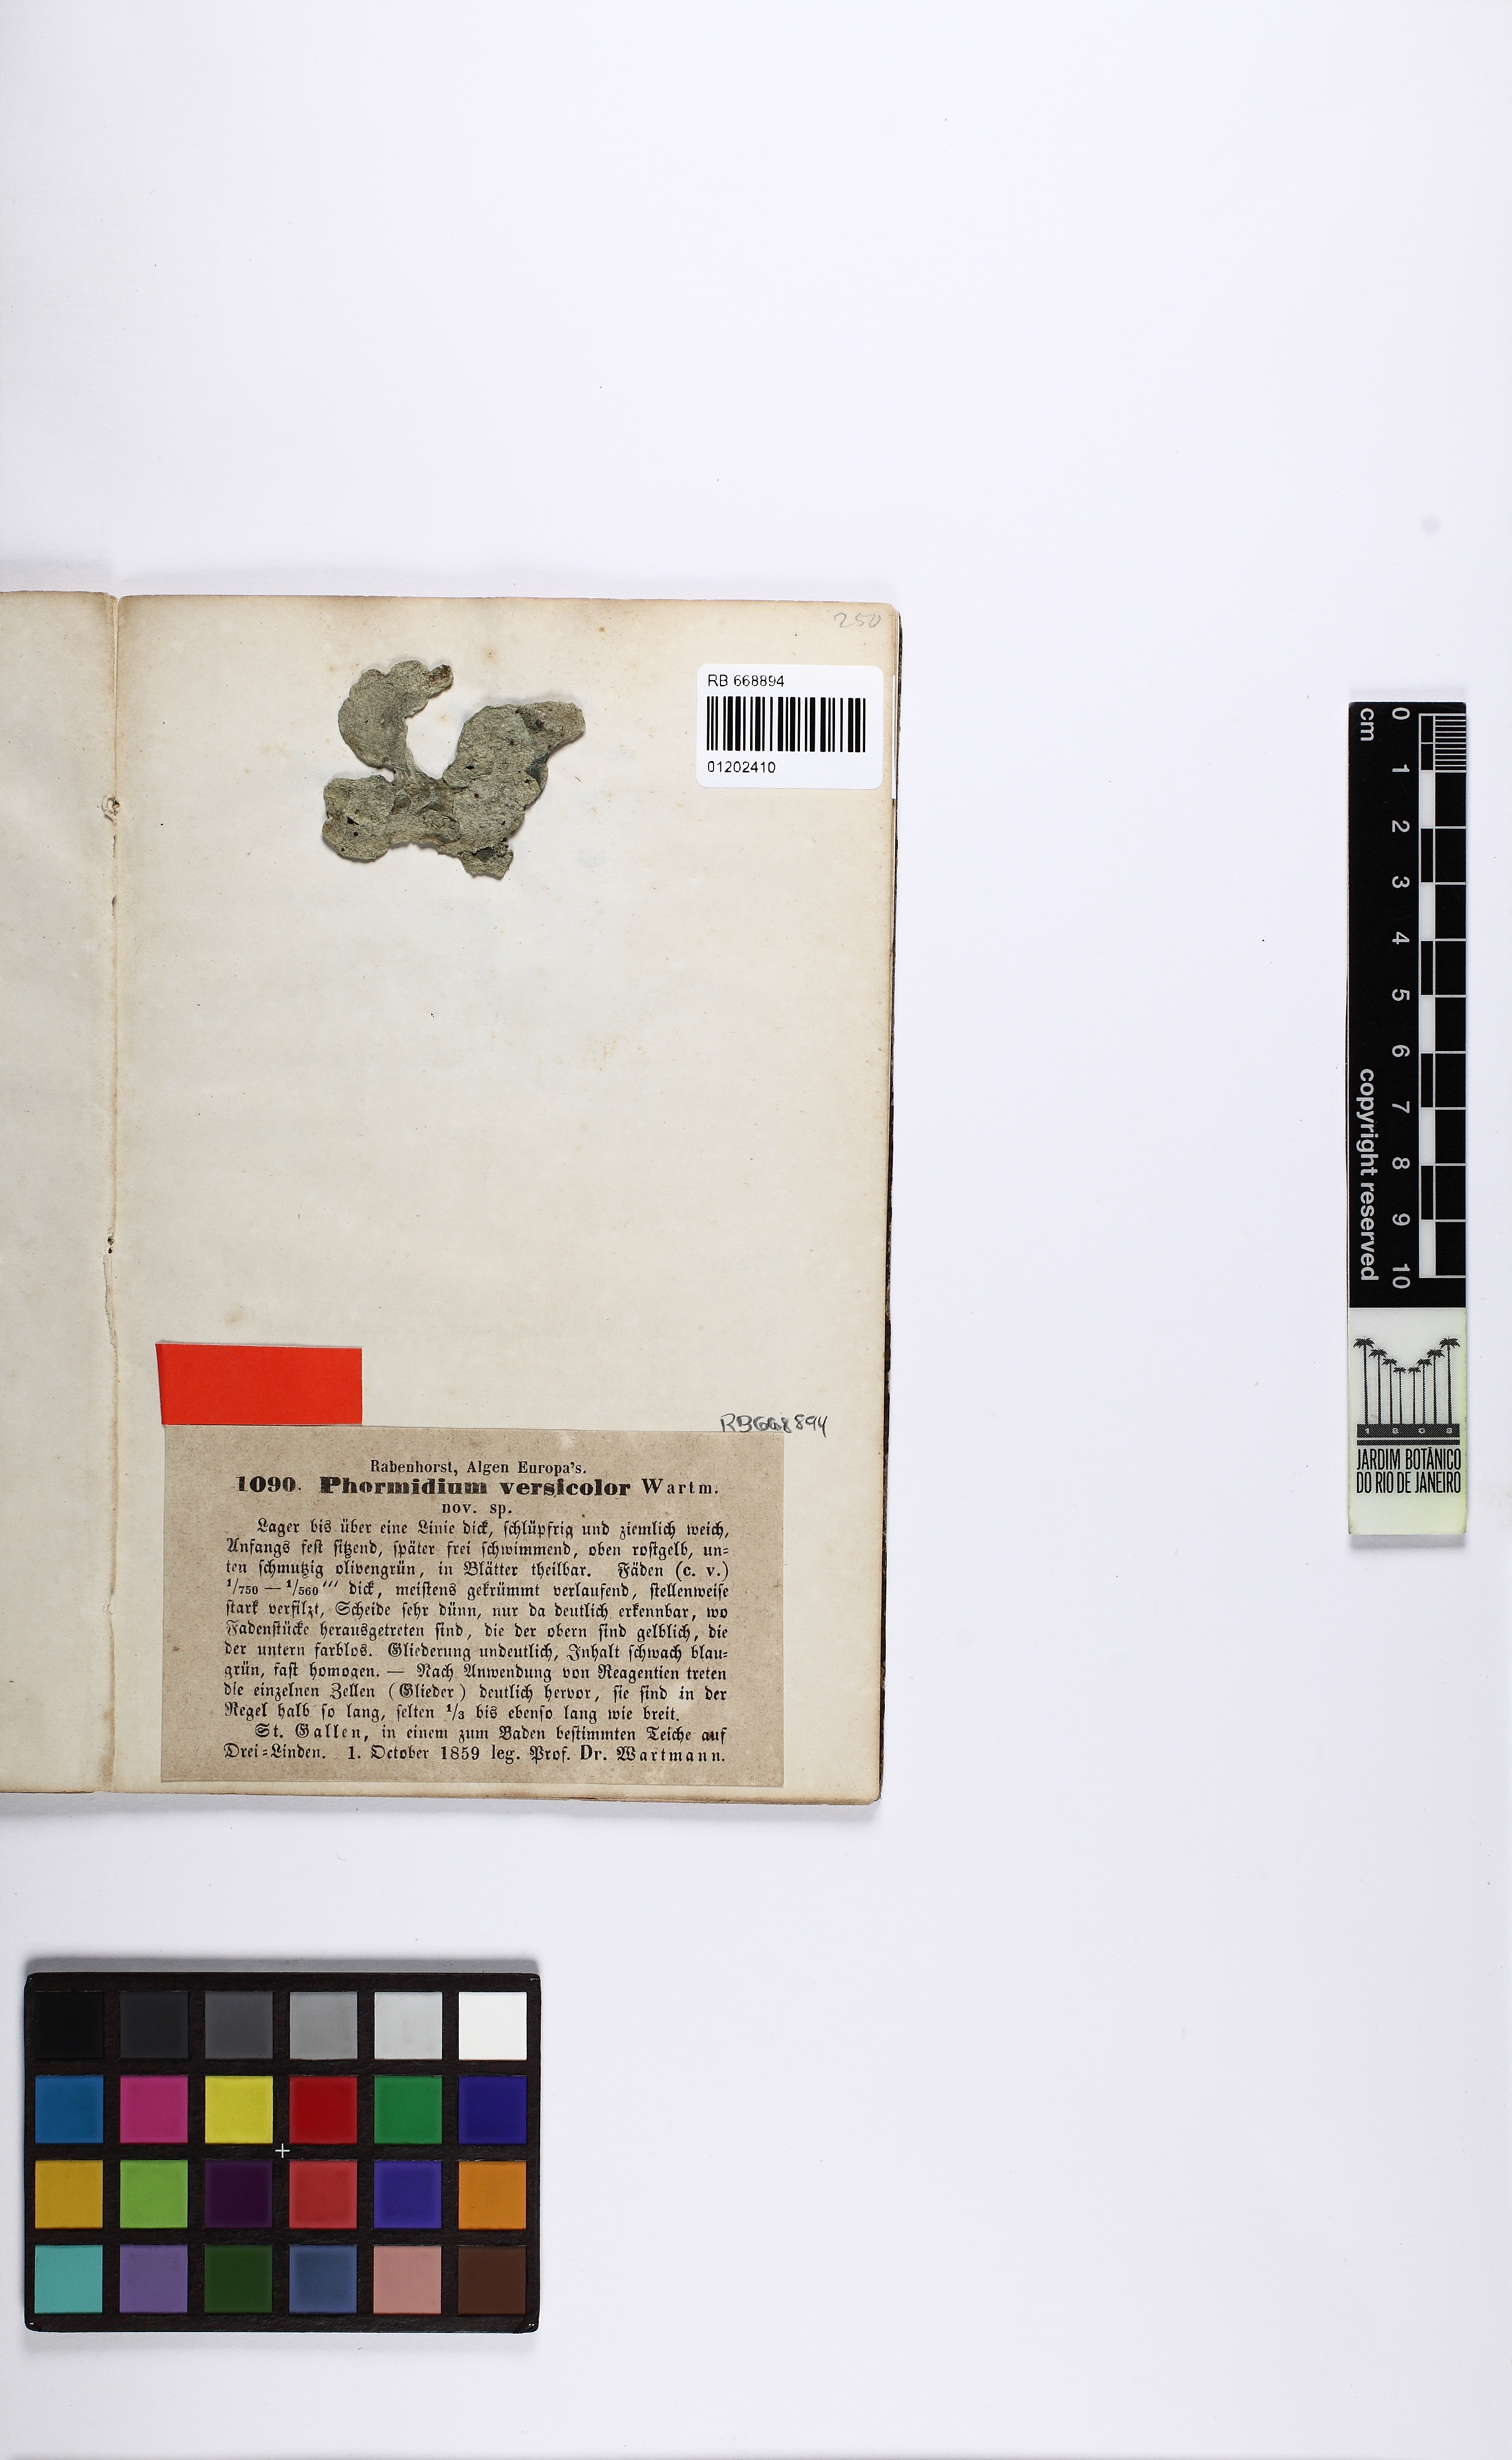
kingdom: Bacteria
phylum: Cyanobacteria
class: Cyanobacteriia
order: Cyanobacteriales
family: Oscillatoriaceae
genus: Phormidium
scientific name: Phormidium versicolor
